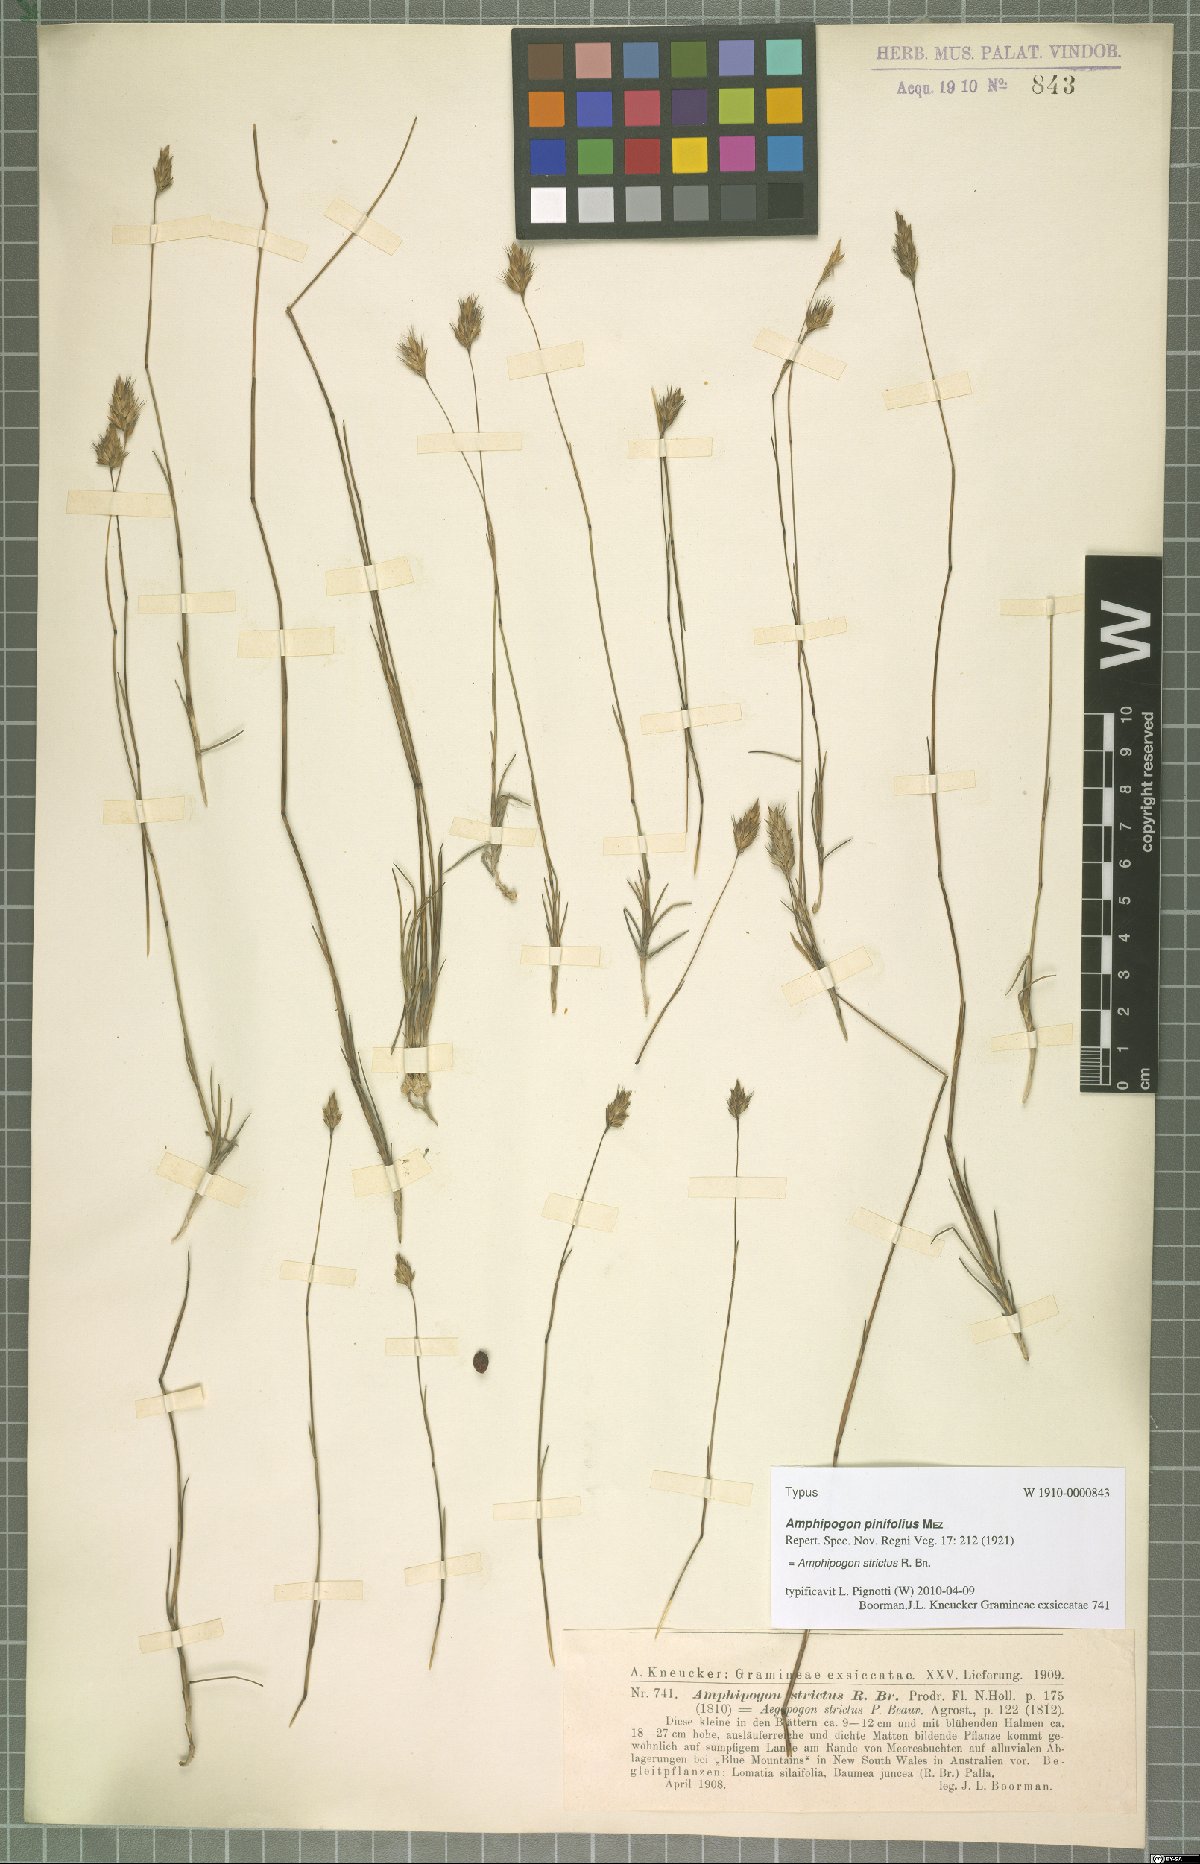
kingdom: Plantae
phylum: Tracheophyta
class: Liliopsida
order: Poales
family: Poaceae
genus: Amphipogon
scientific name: Amphipogon strictus
